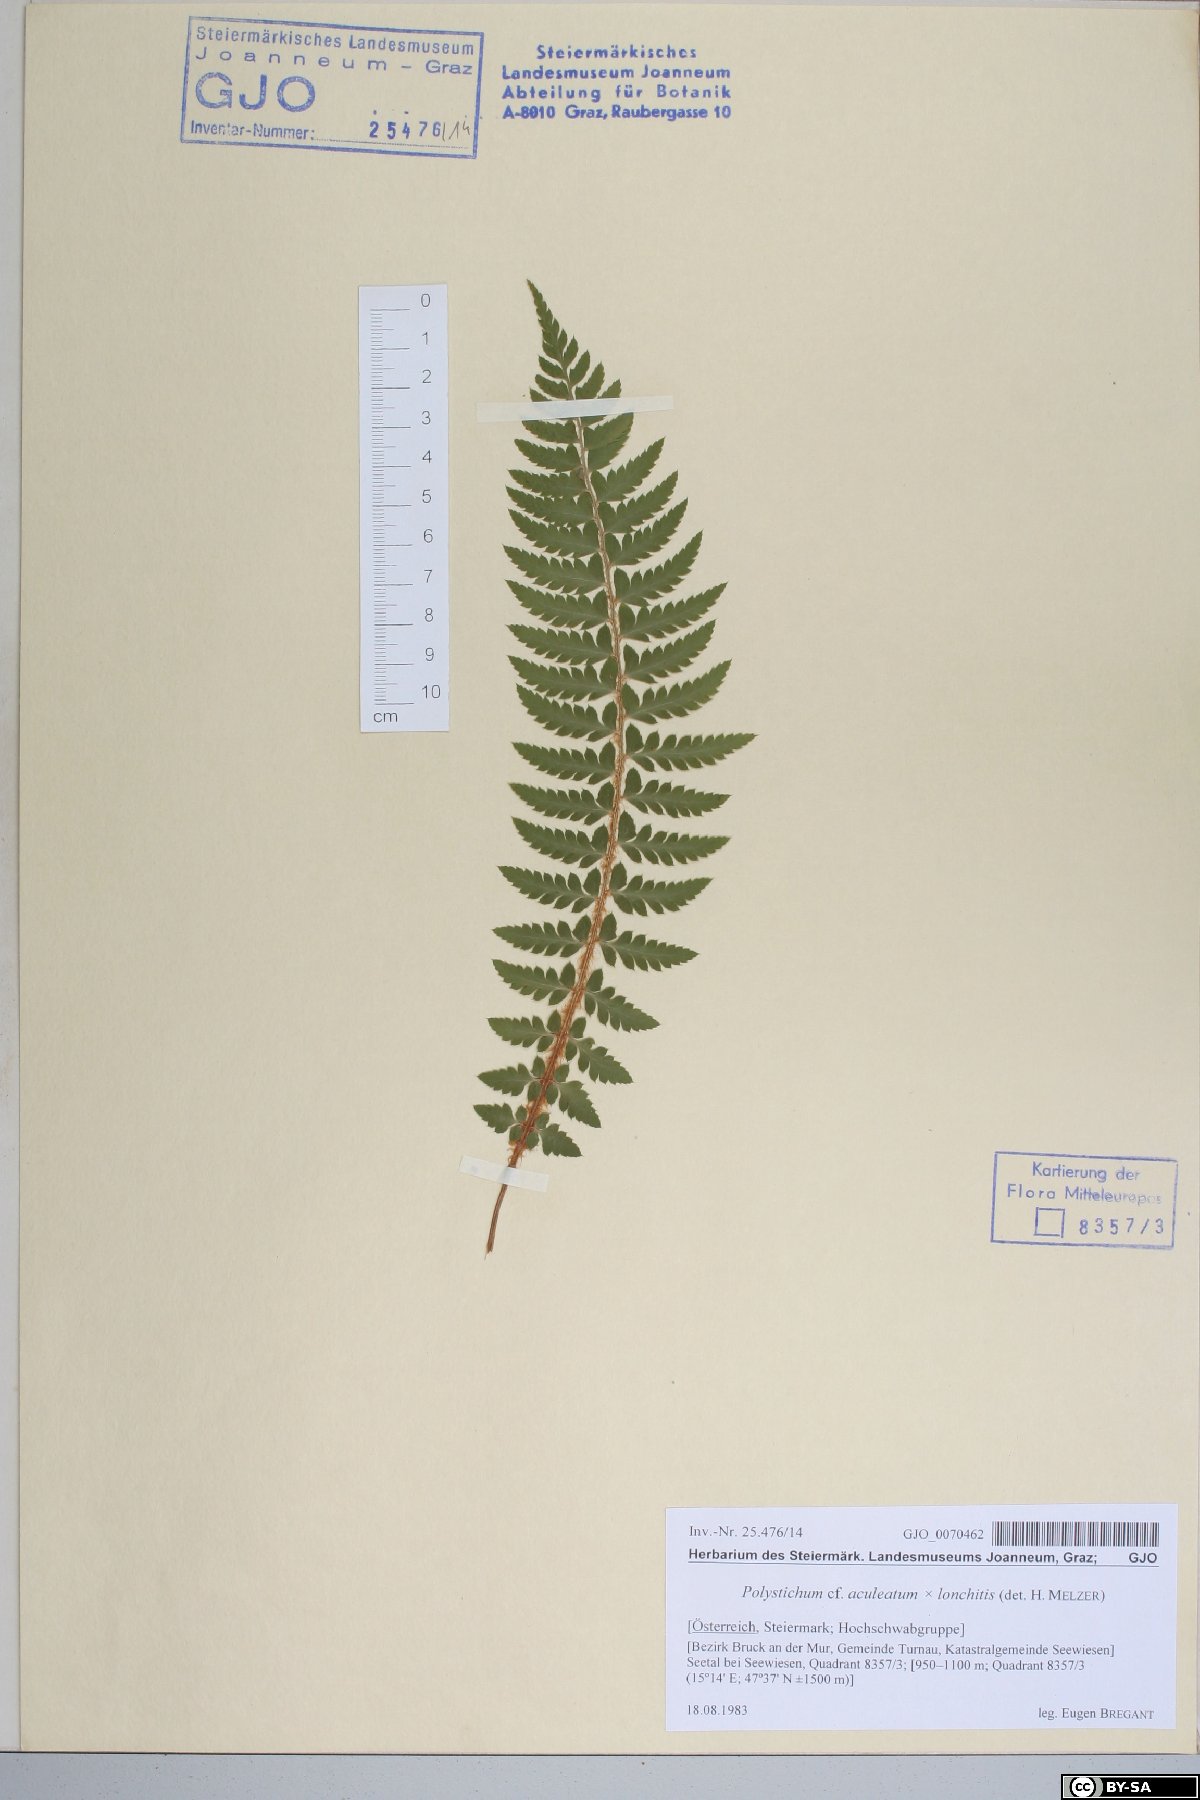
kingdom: Plantae
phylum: Tracheophyta
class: Polypodiopsida
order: Polypodiales
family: Dryopteridaceae
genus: Polystichum
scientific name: Polystichum aculeatum
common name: Hard shield-fern
